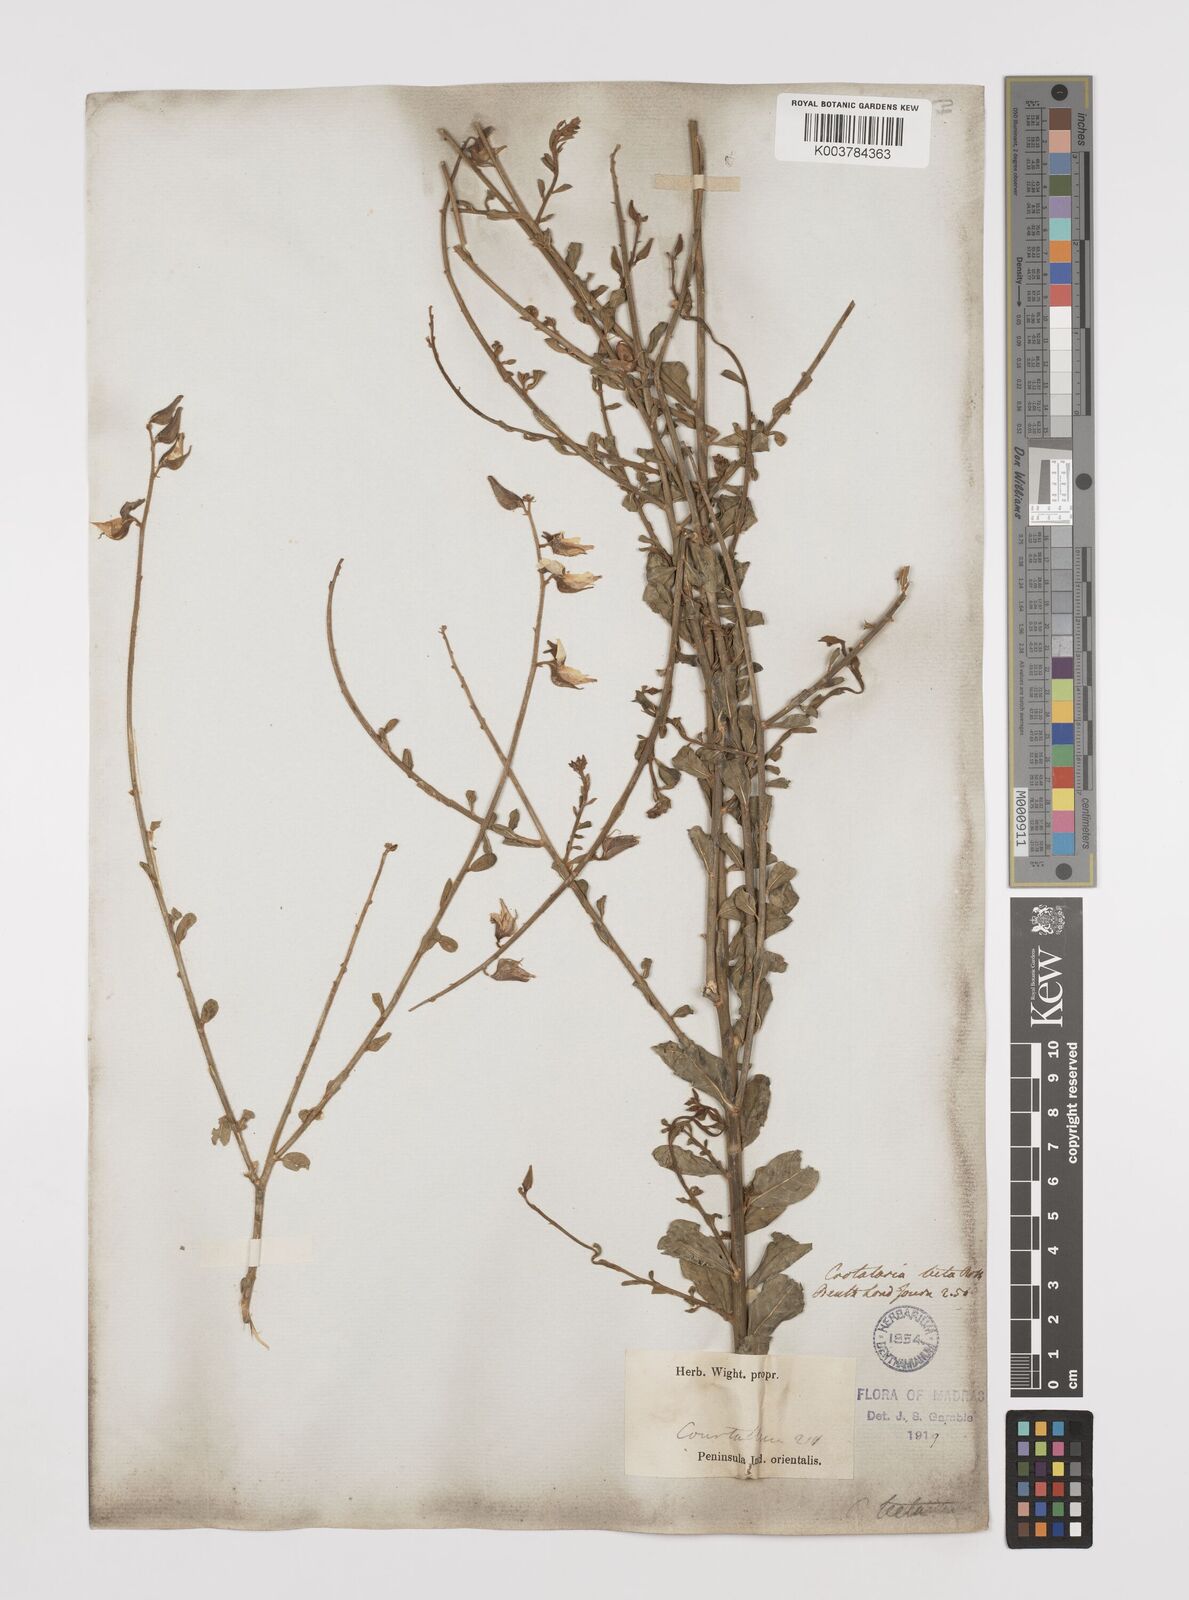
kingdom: Plantae
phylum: Tracheophyta
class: Magnoliopsida
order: Fabales
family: Fabaceae
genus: Crotalaria
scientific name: Crotalaria linifolia
